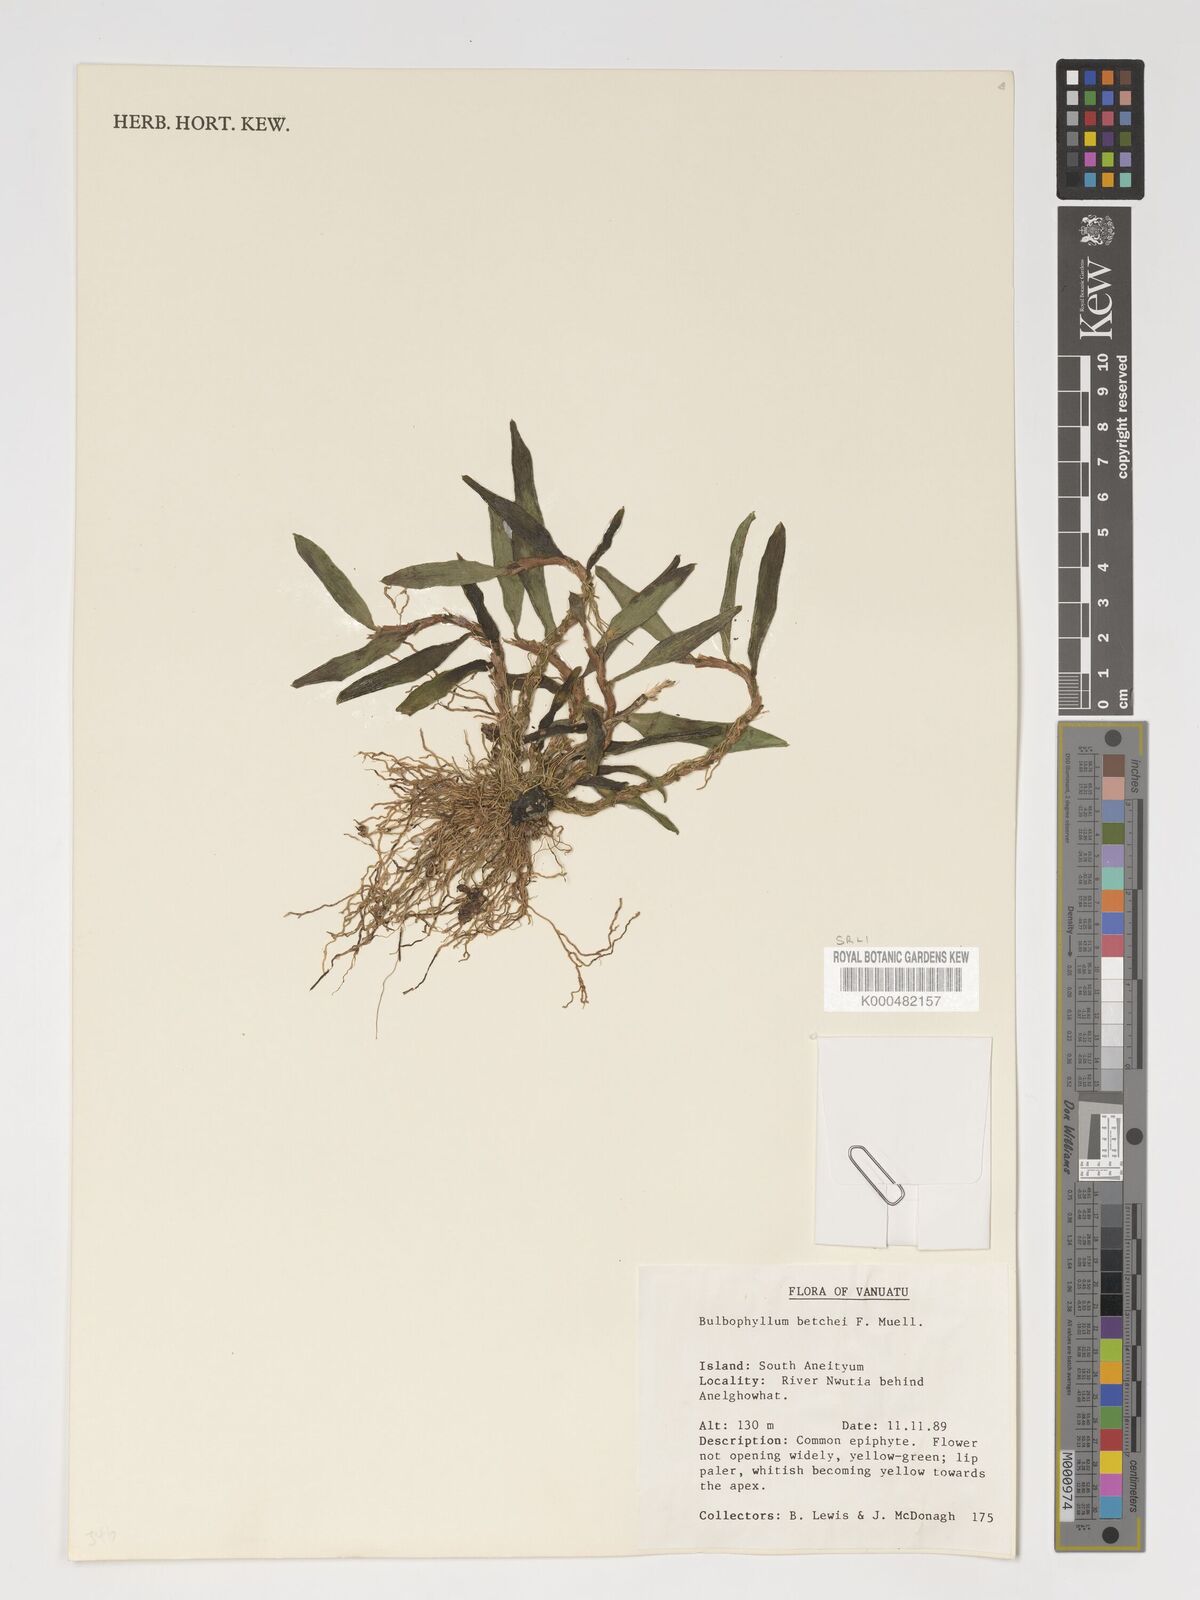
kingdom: Plantae
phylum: Tracheophyta
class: Liliopsida
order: Asparagales
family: Orchidaceae
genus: Bulbophyllum
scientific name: Bulbophyllum betchei
